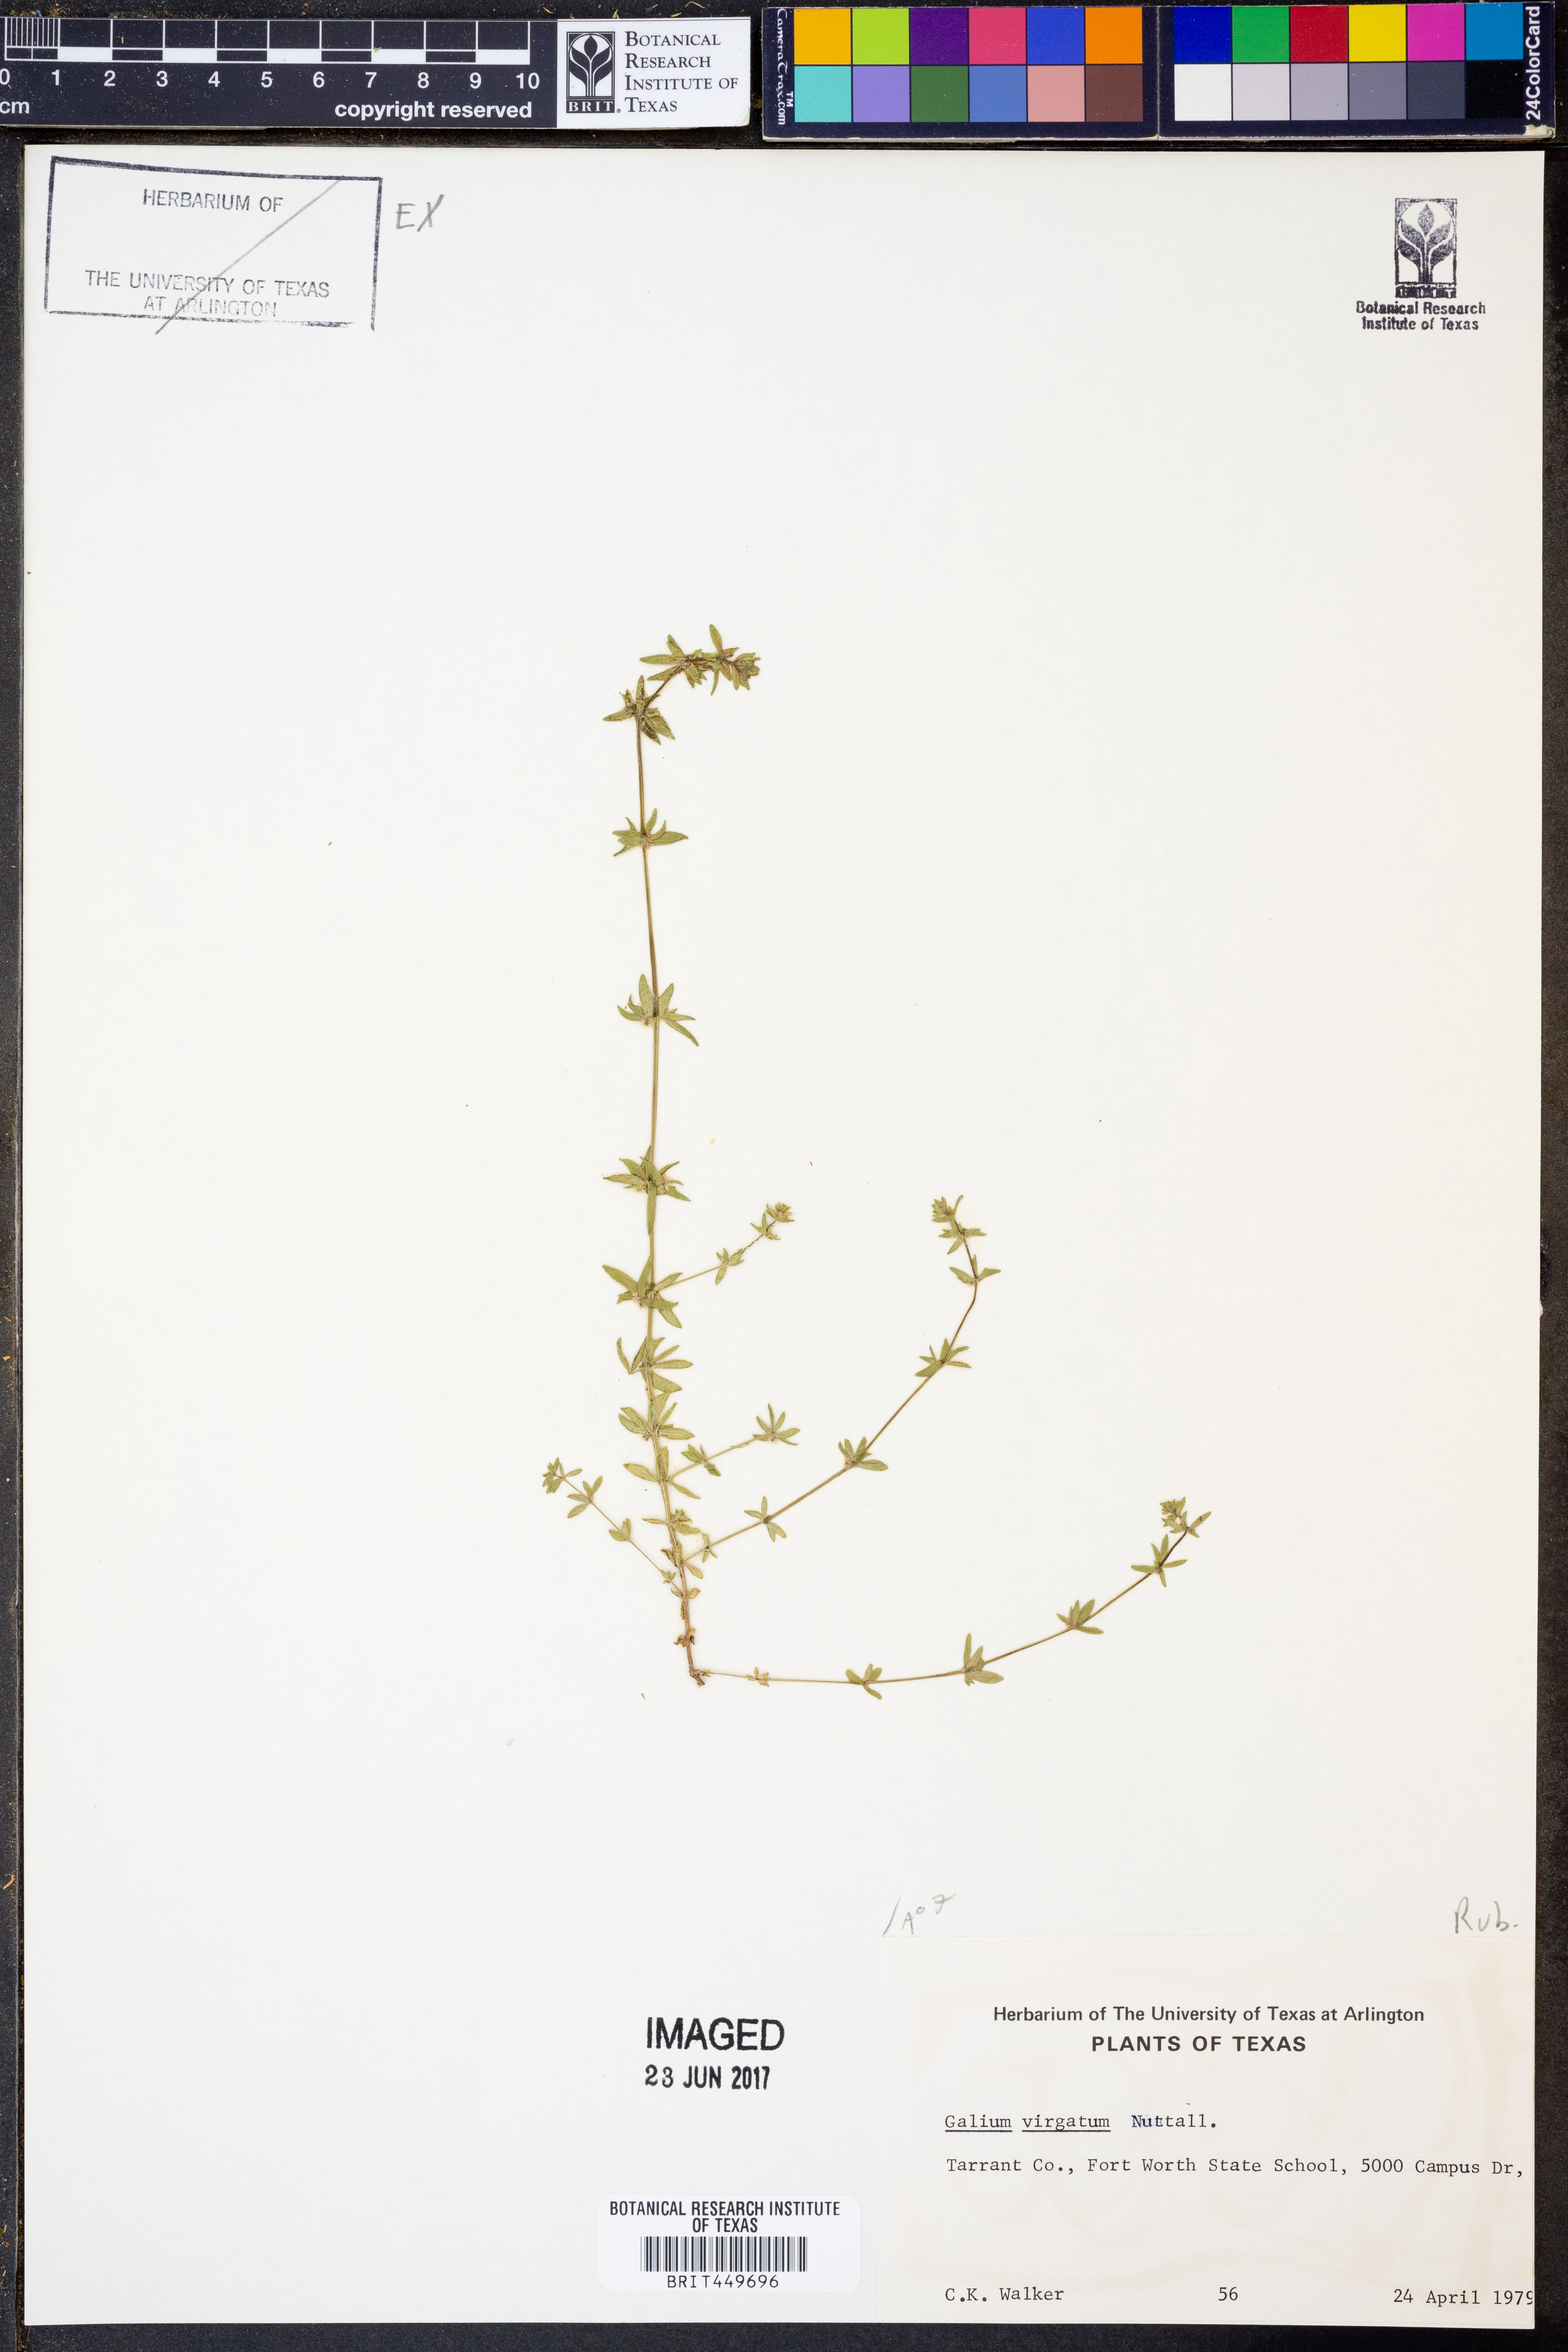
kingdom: Plantae
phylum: Tracheophyta
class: Magnoliopsida
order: Gentianales
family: Rubiaceae
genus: Galium
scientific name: Galium virgatum
